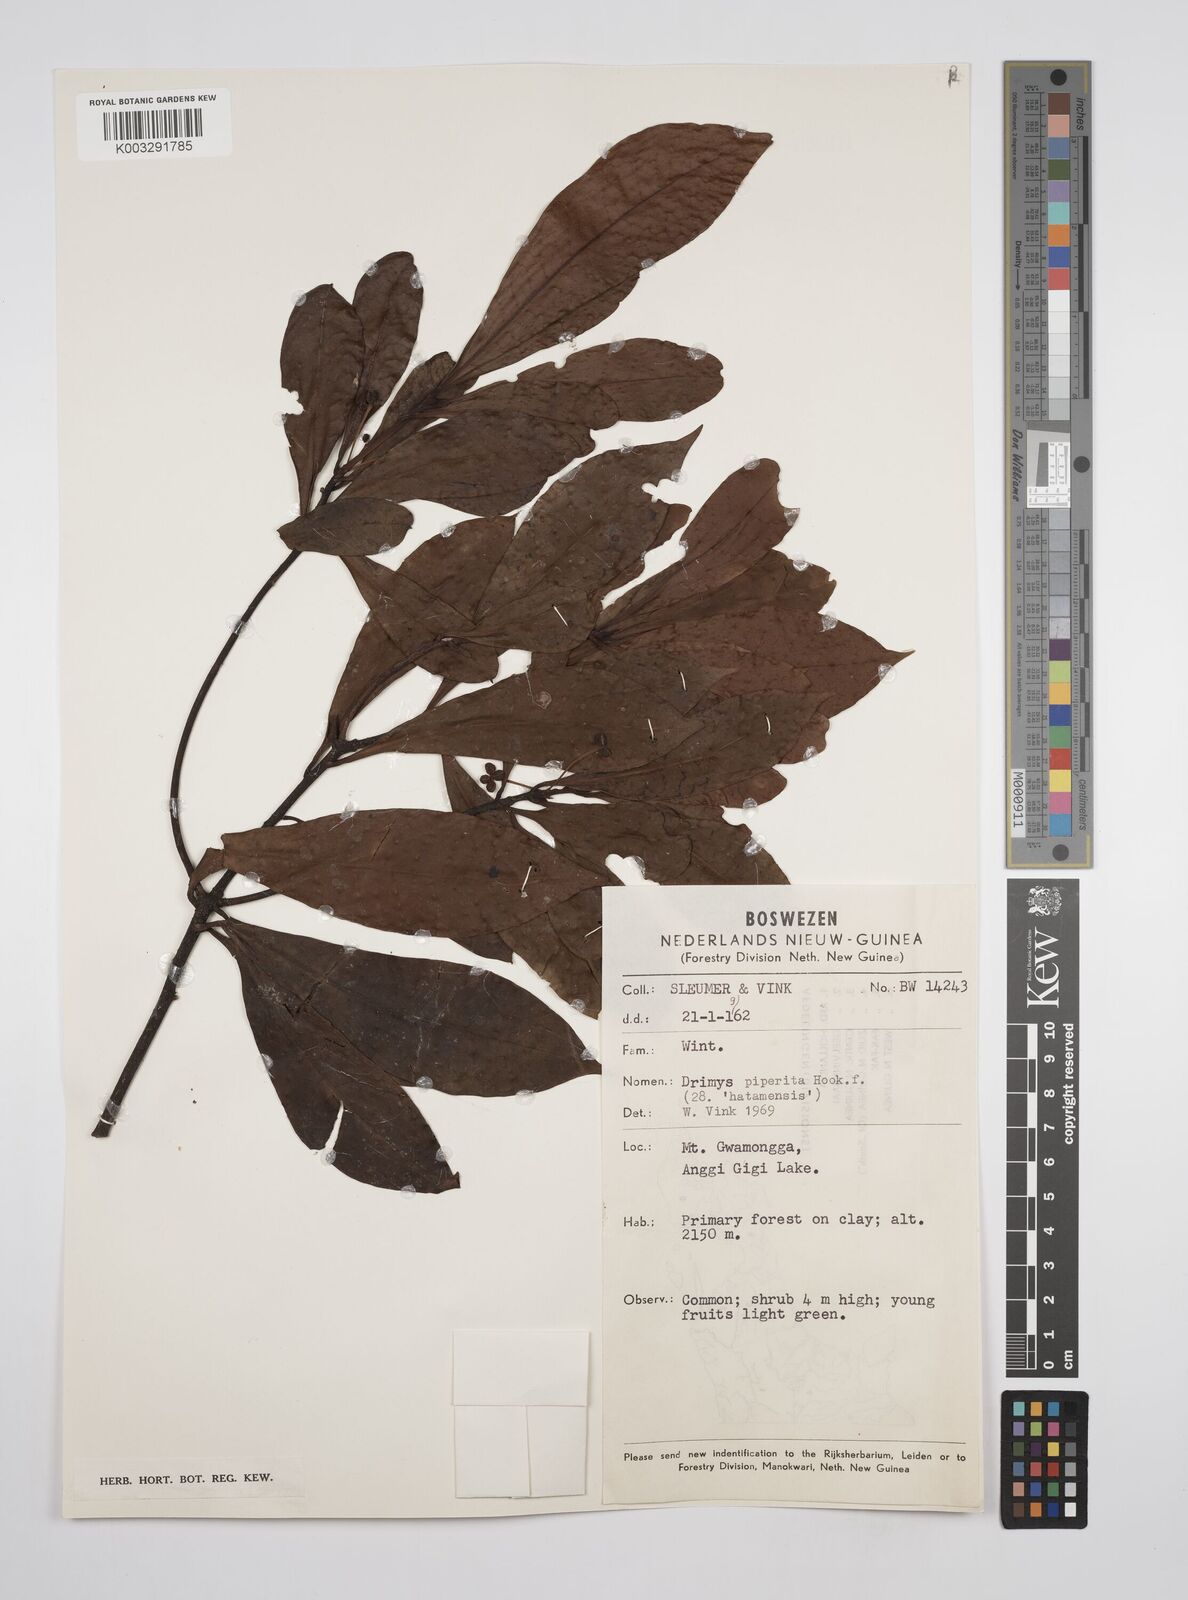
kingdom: Plantae
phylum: Tracheophyta
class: Magnoliopsida
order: Canellales
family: Winteraceae
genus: Drimys
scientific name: Drimys piperita
